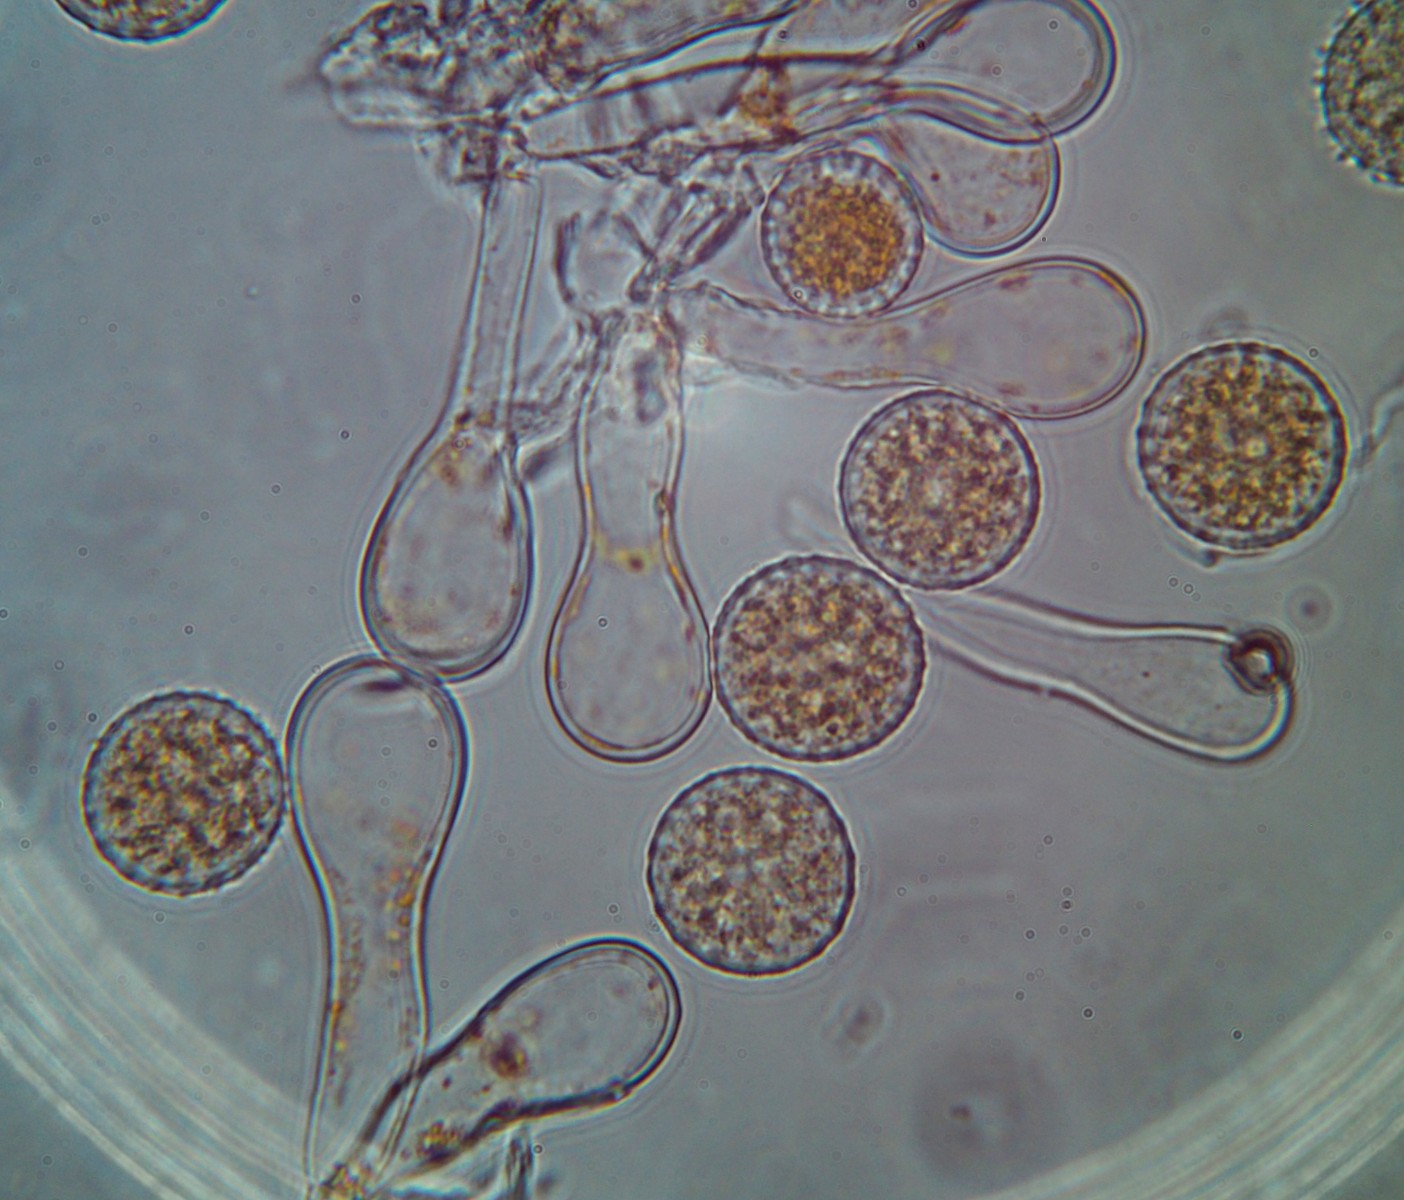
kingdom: Fungi
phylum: Basidiomycota
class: Pucciniomycetes
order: Pucciniales
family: Melampsoraceae
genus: Melampsora
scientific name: Melampsora ribesii-viminalis
